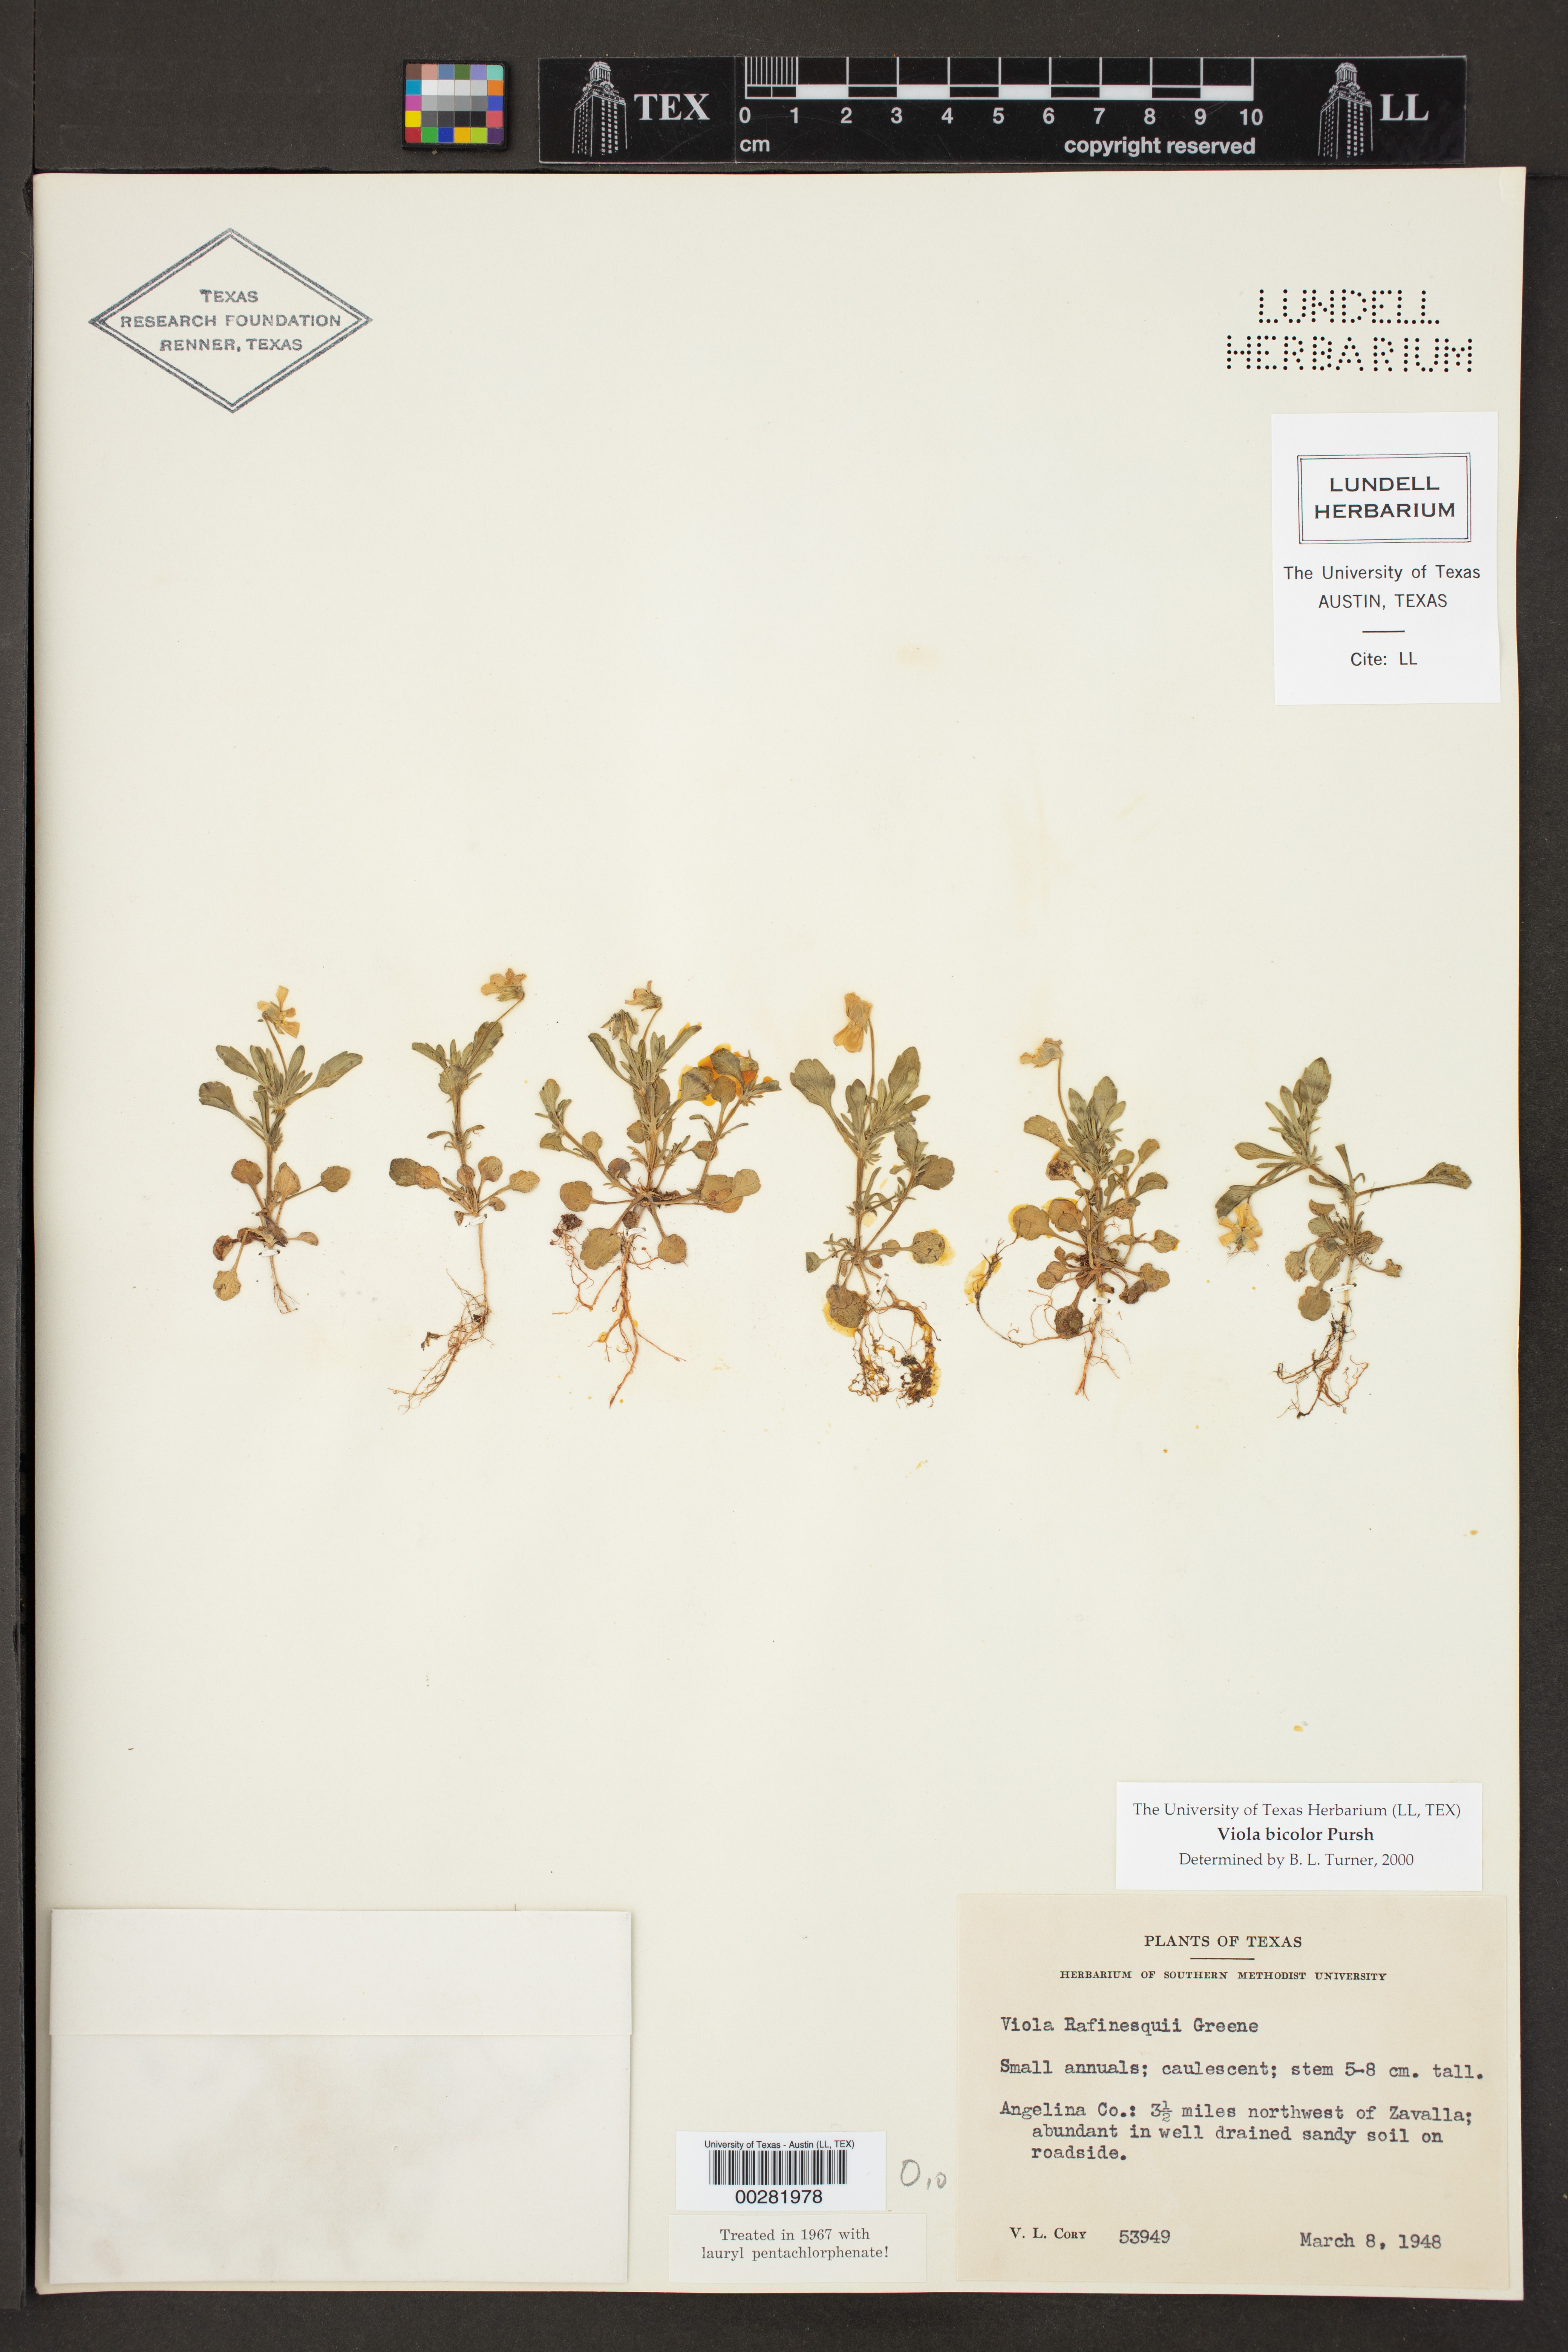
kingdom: Plantae
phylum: Tracheophyta
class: Magnoliopsida
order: Malpighiales
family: Violaceae
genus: Viola
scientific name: Viola
